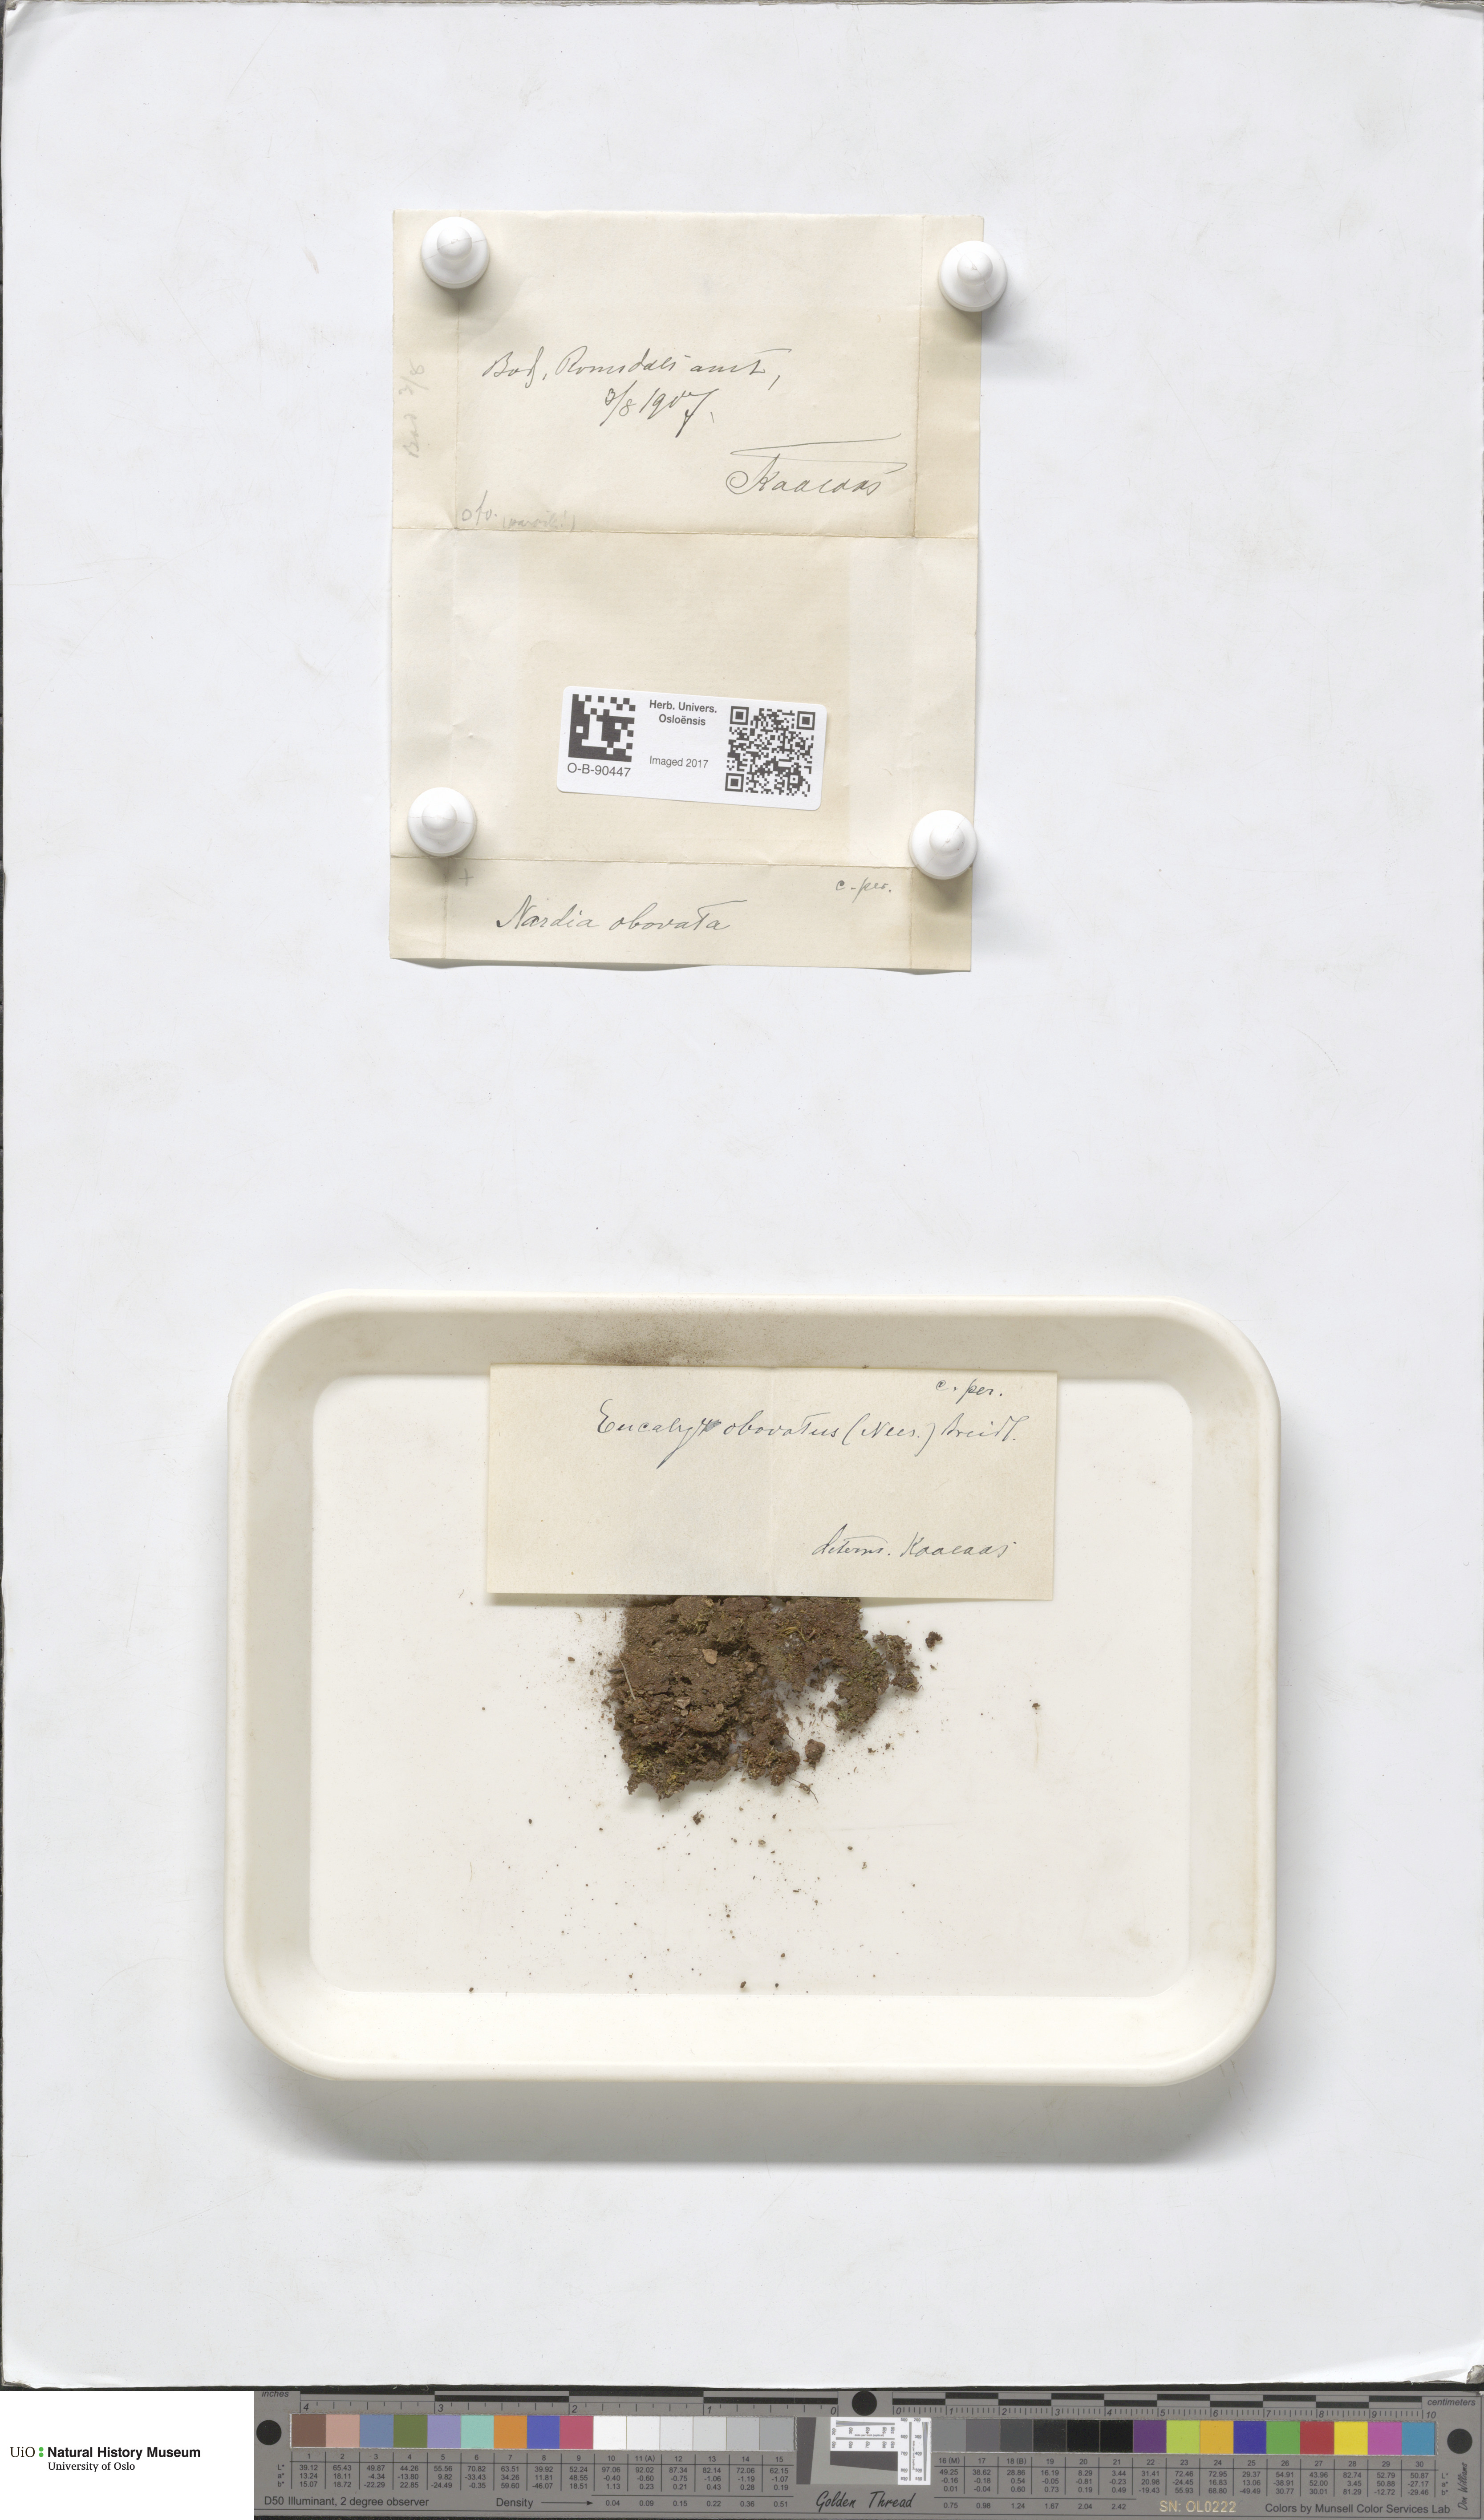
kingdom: Plantae
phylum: Marchantiophyta
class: Jungermanniopsida
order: Jungermanniales
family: Solenostomataceae
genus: Solenostoma
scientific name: Solenostoma obovatum
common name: Egg flapwort
